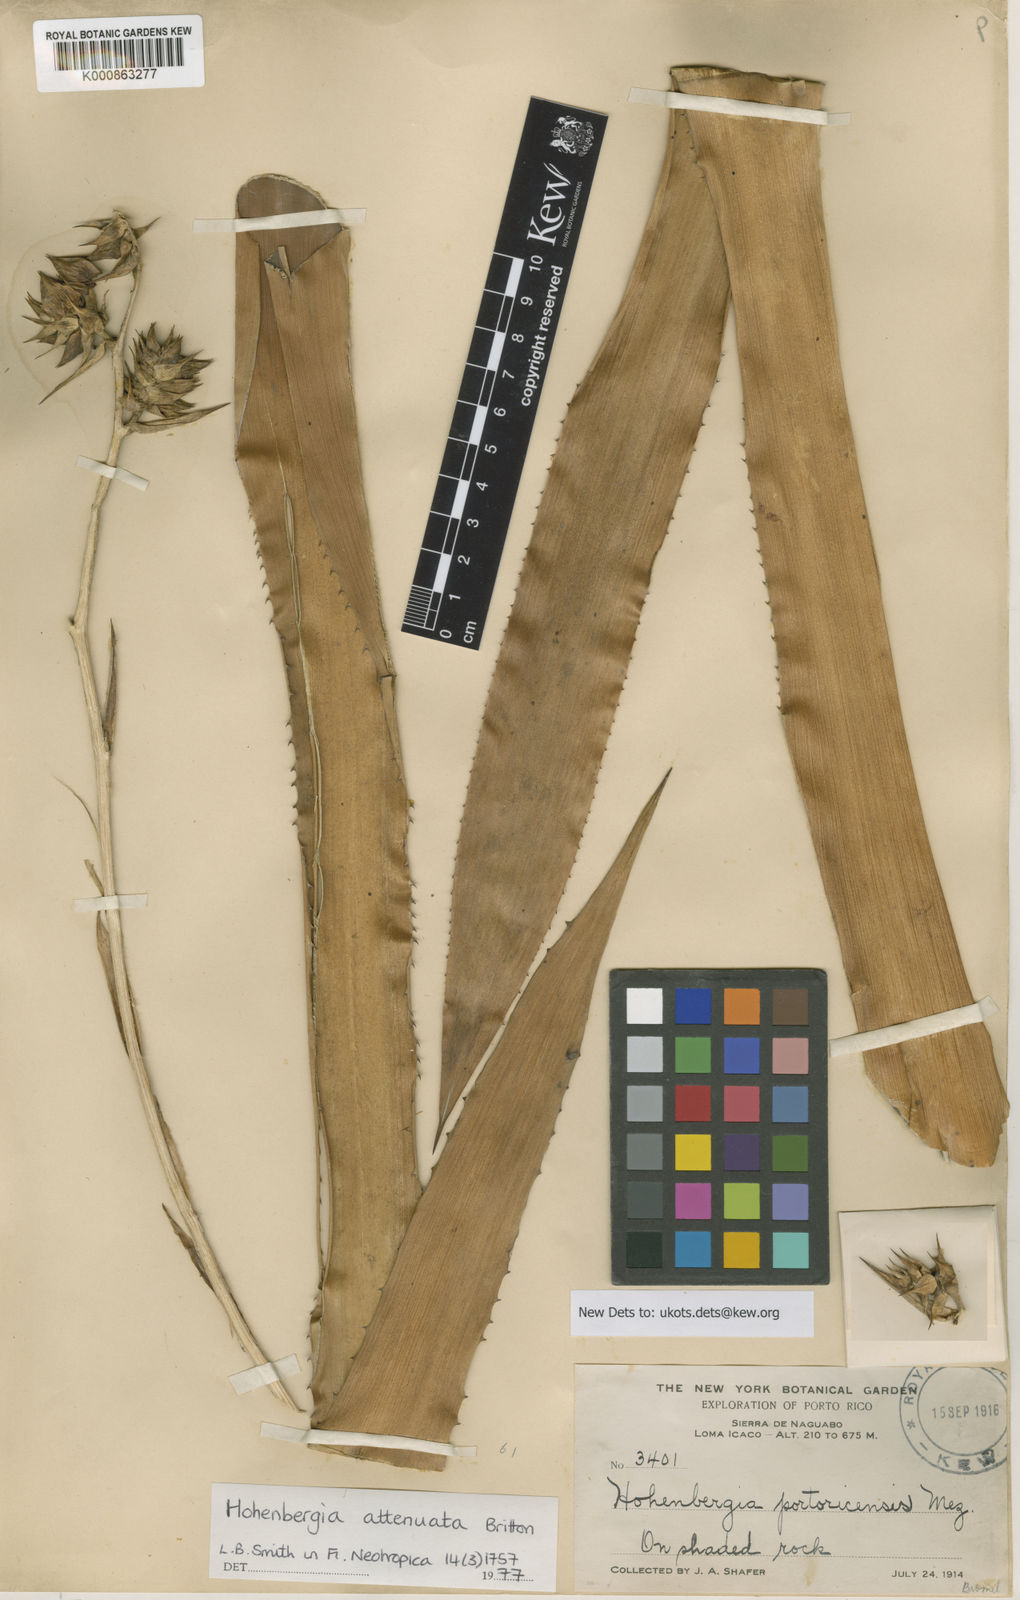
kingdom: Plantae
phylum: Tracheophyta
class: Liliopsida
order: Poales
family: Bromeliaceae
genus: Wittmackia
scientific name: Wittmackia portoricensis
